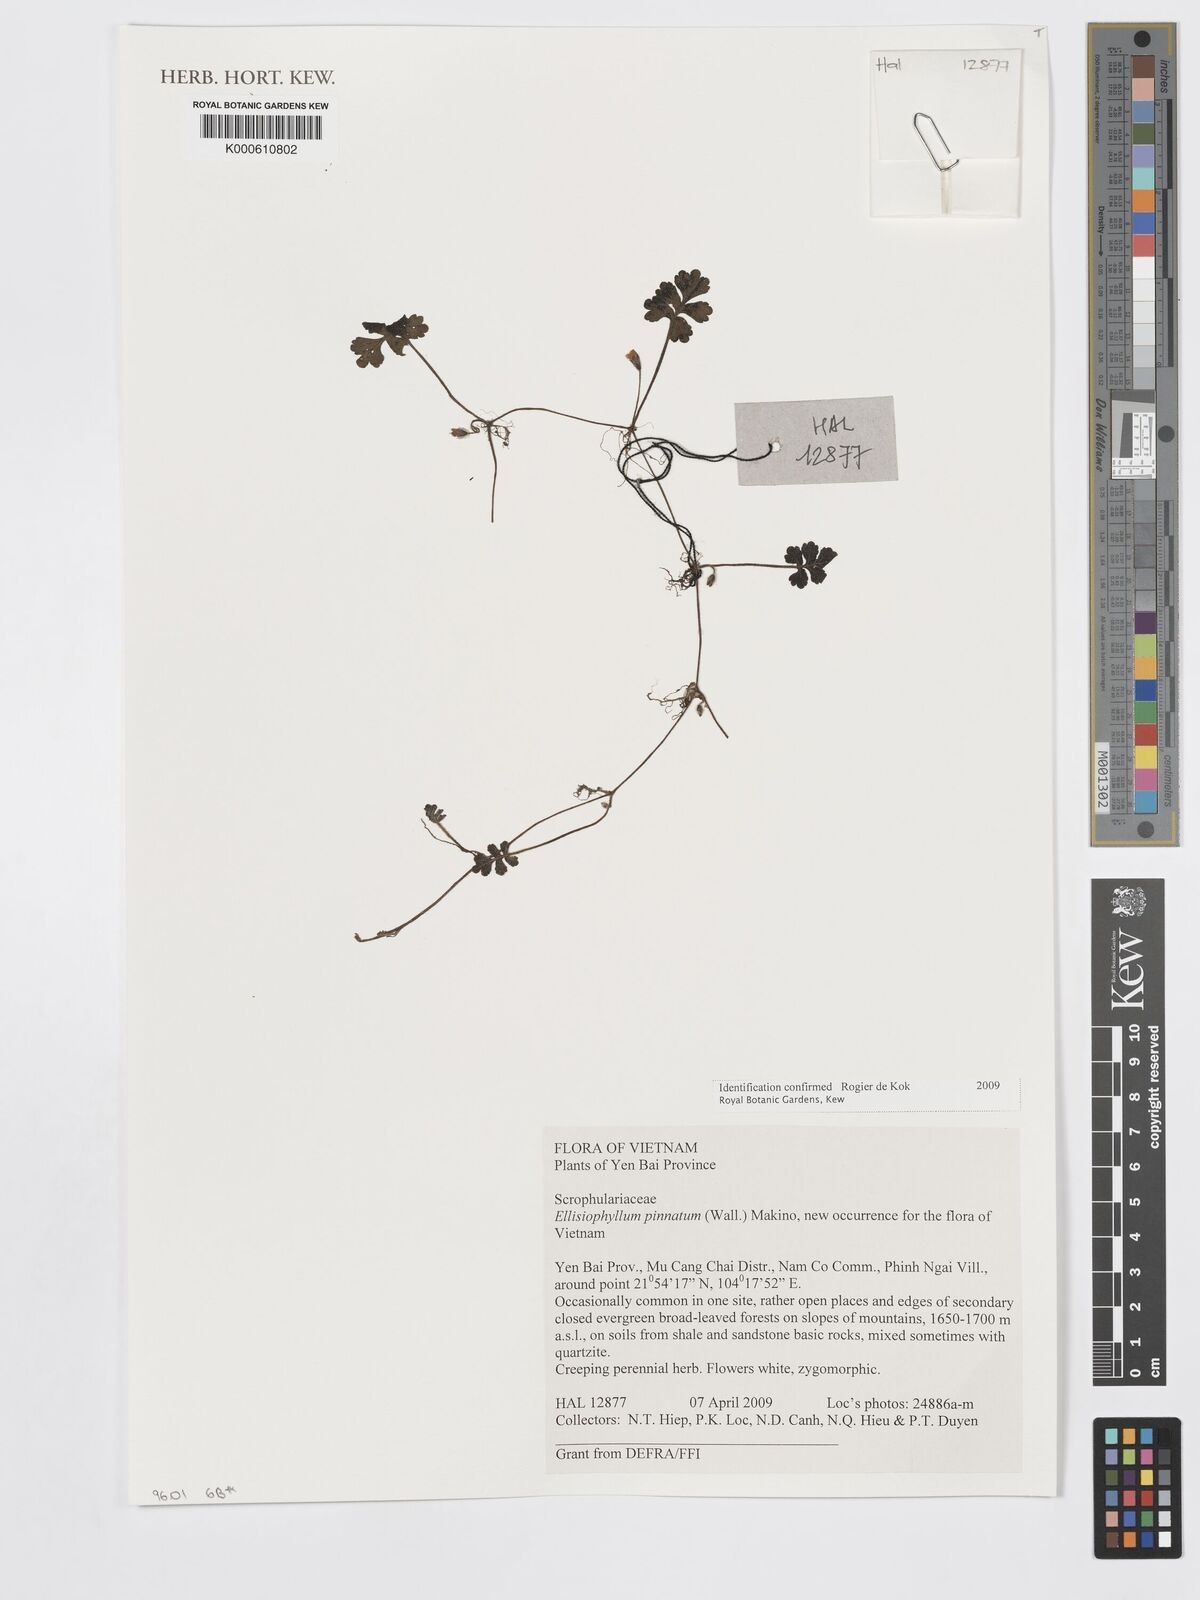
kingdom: Plantae
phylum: Tracheophyta
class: Magnoliopsida
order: Lamiales
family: Plantaginaceae
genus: Ellisiophyllum
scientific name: Ellisiophyllum pinnatum
